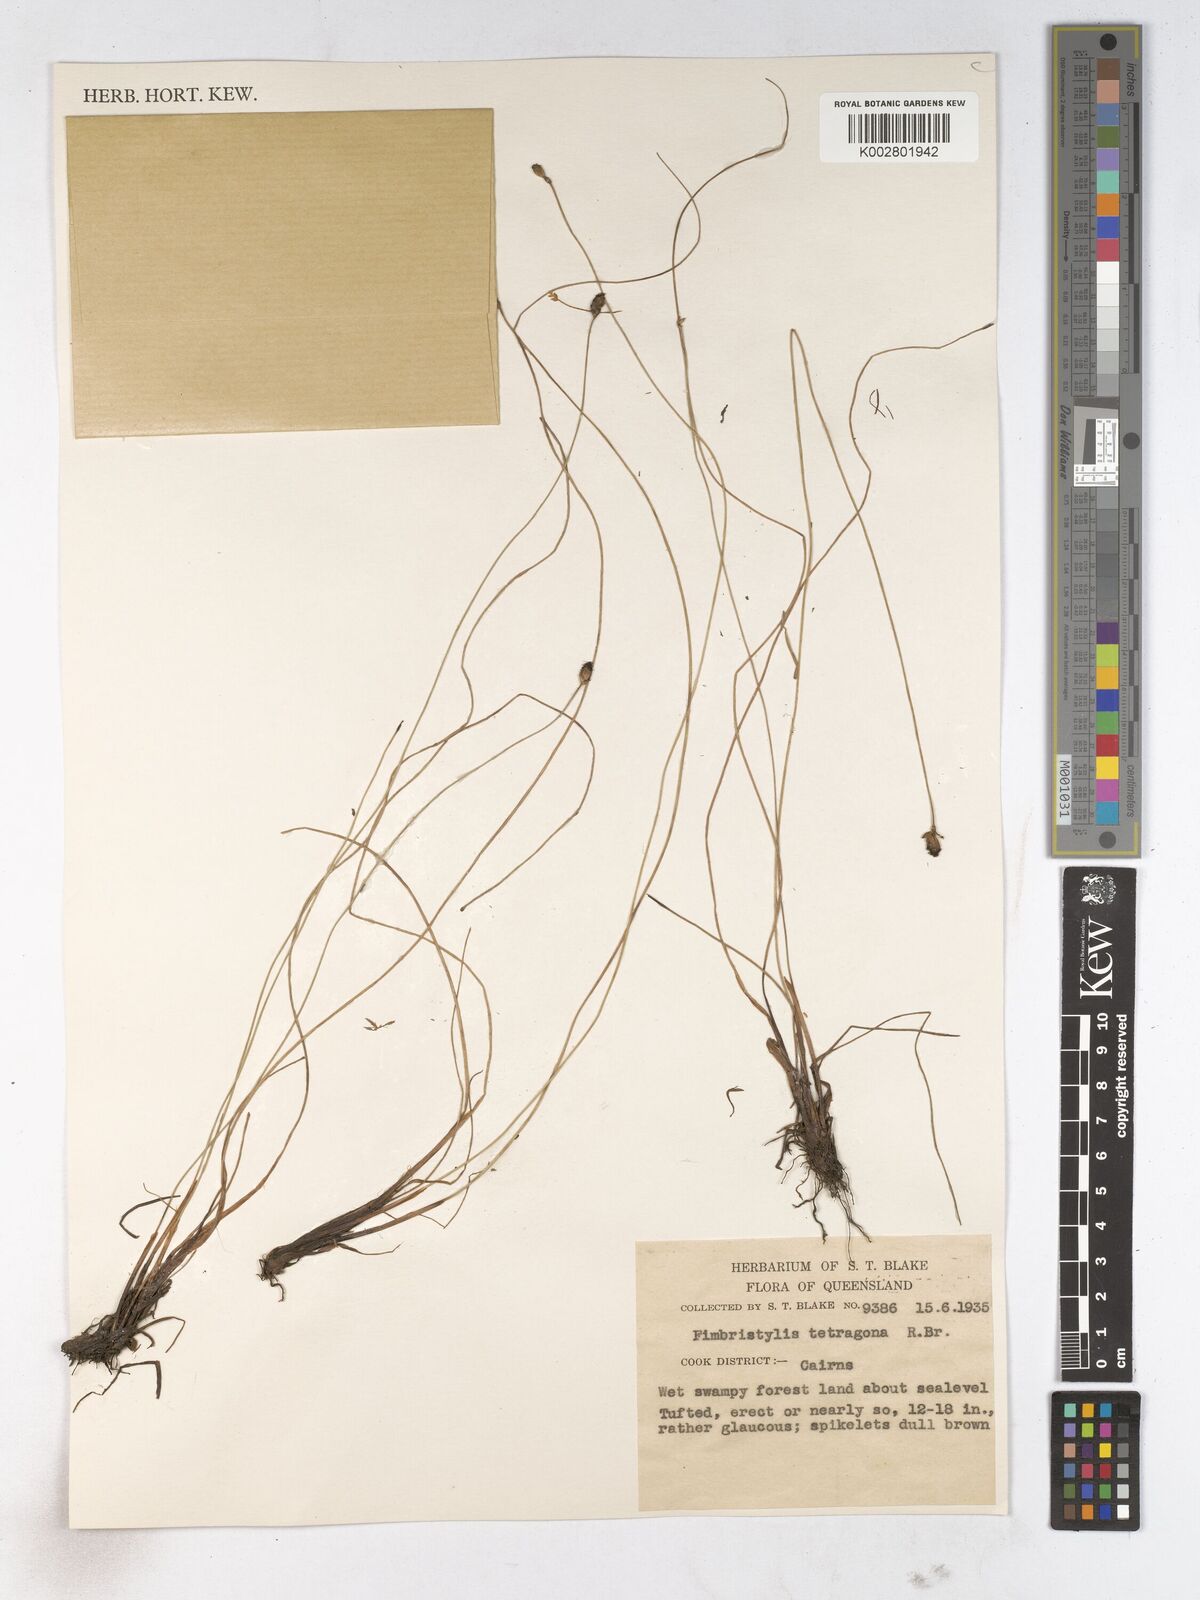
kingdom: Plantae
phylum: Tracheophyta
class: Liliopsida
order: Poales
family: Cyperaceae
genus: Fimbristylis
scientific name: Fimbristylis tetragona
